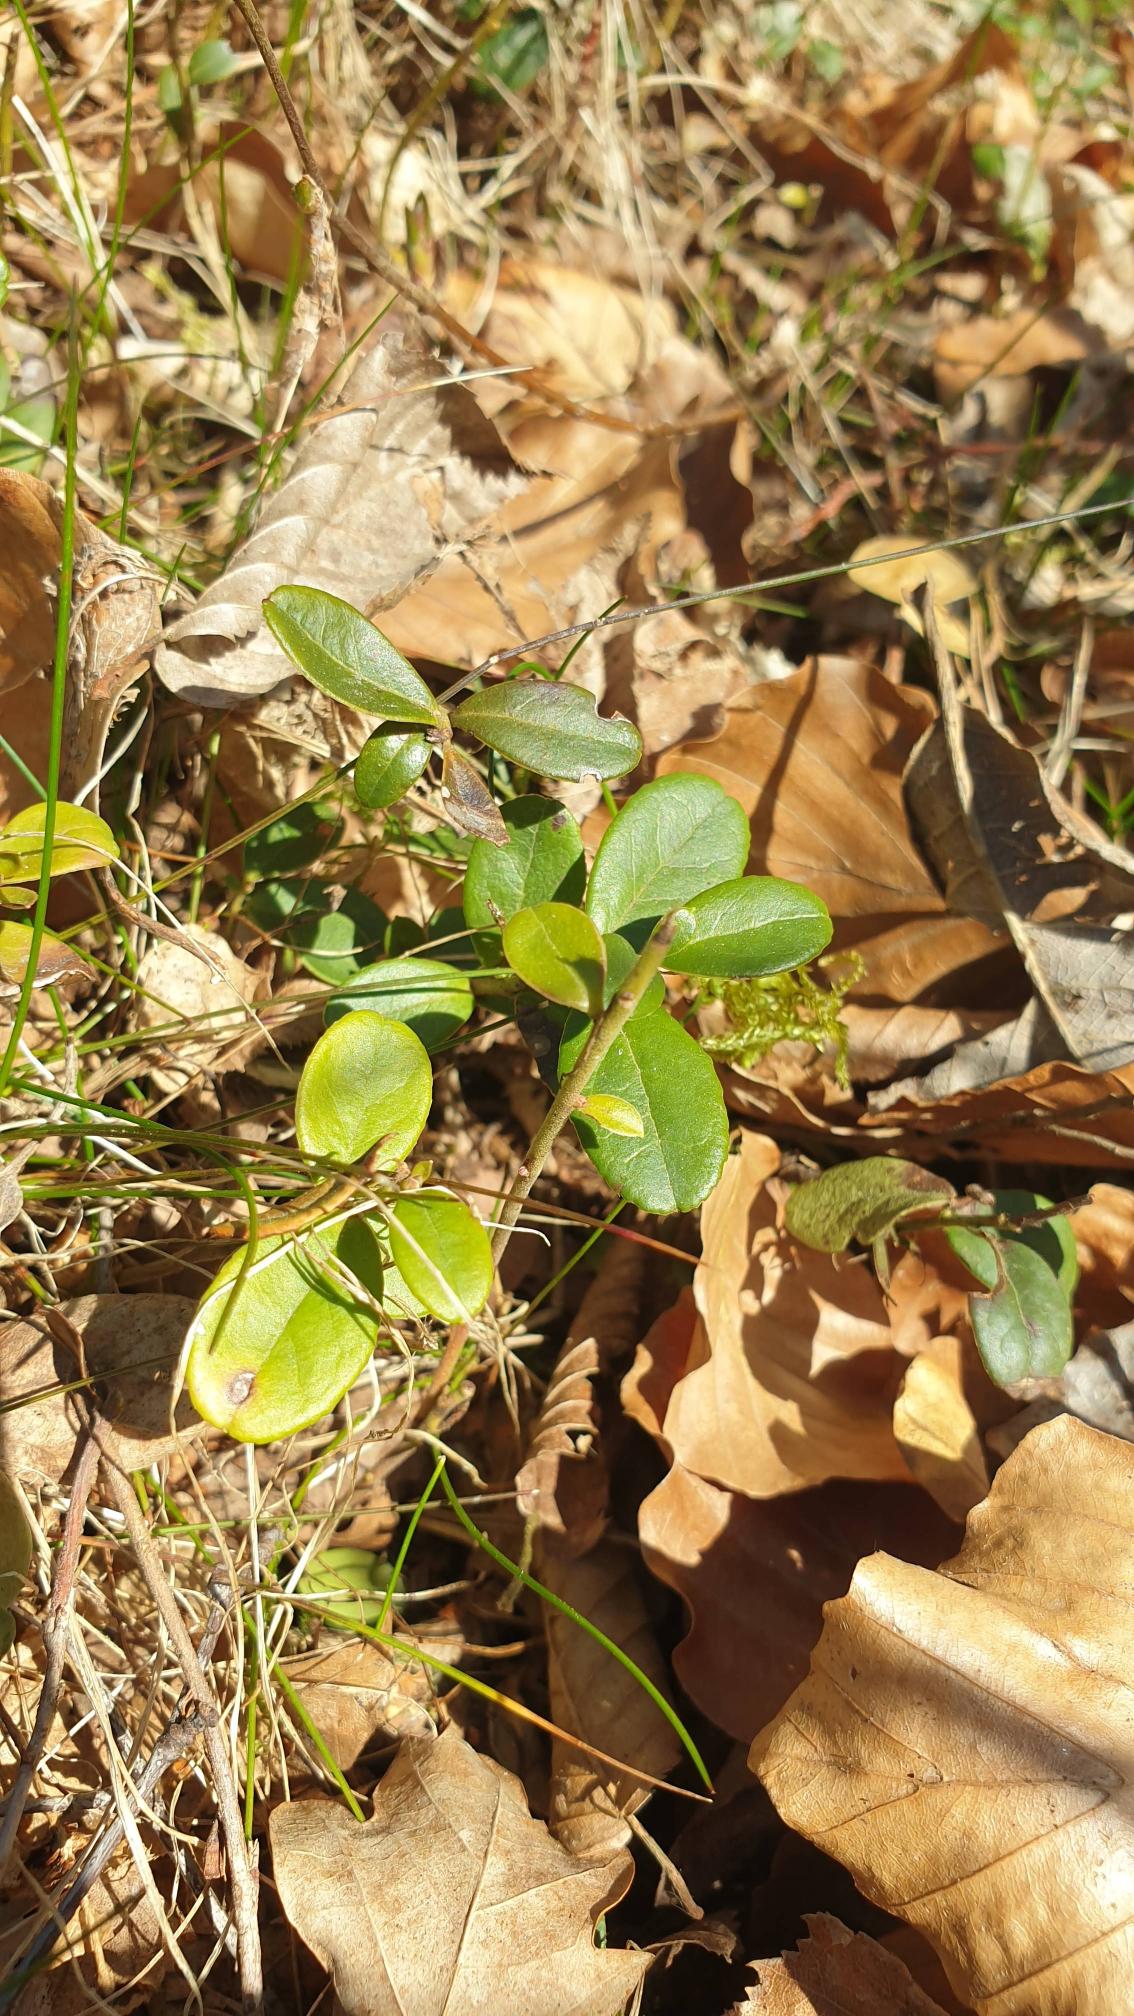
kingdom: Plantae
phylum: Tracheophyta
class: Magnoliopsida
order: Ericales
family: Ericaceae
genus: Vaccinium
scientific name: Vaccinium vitis-idaea
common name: Tyttebær
